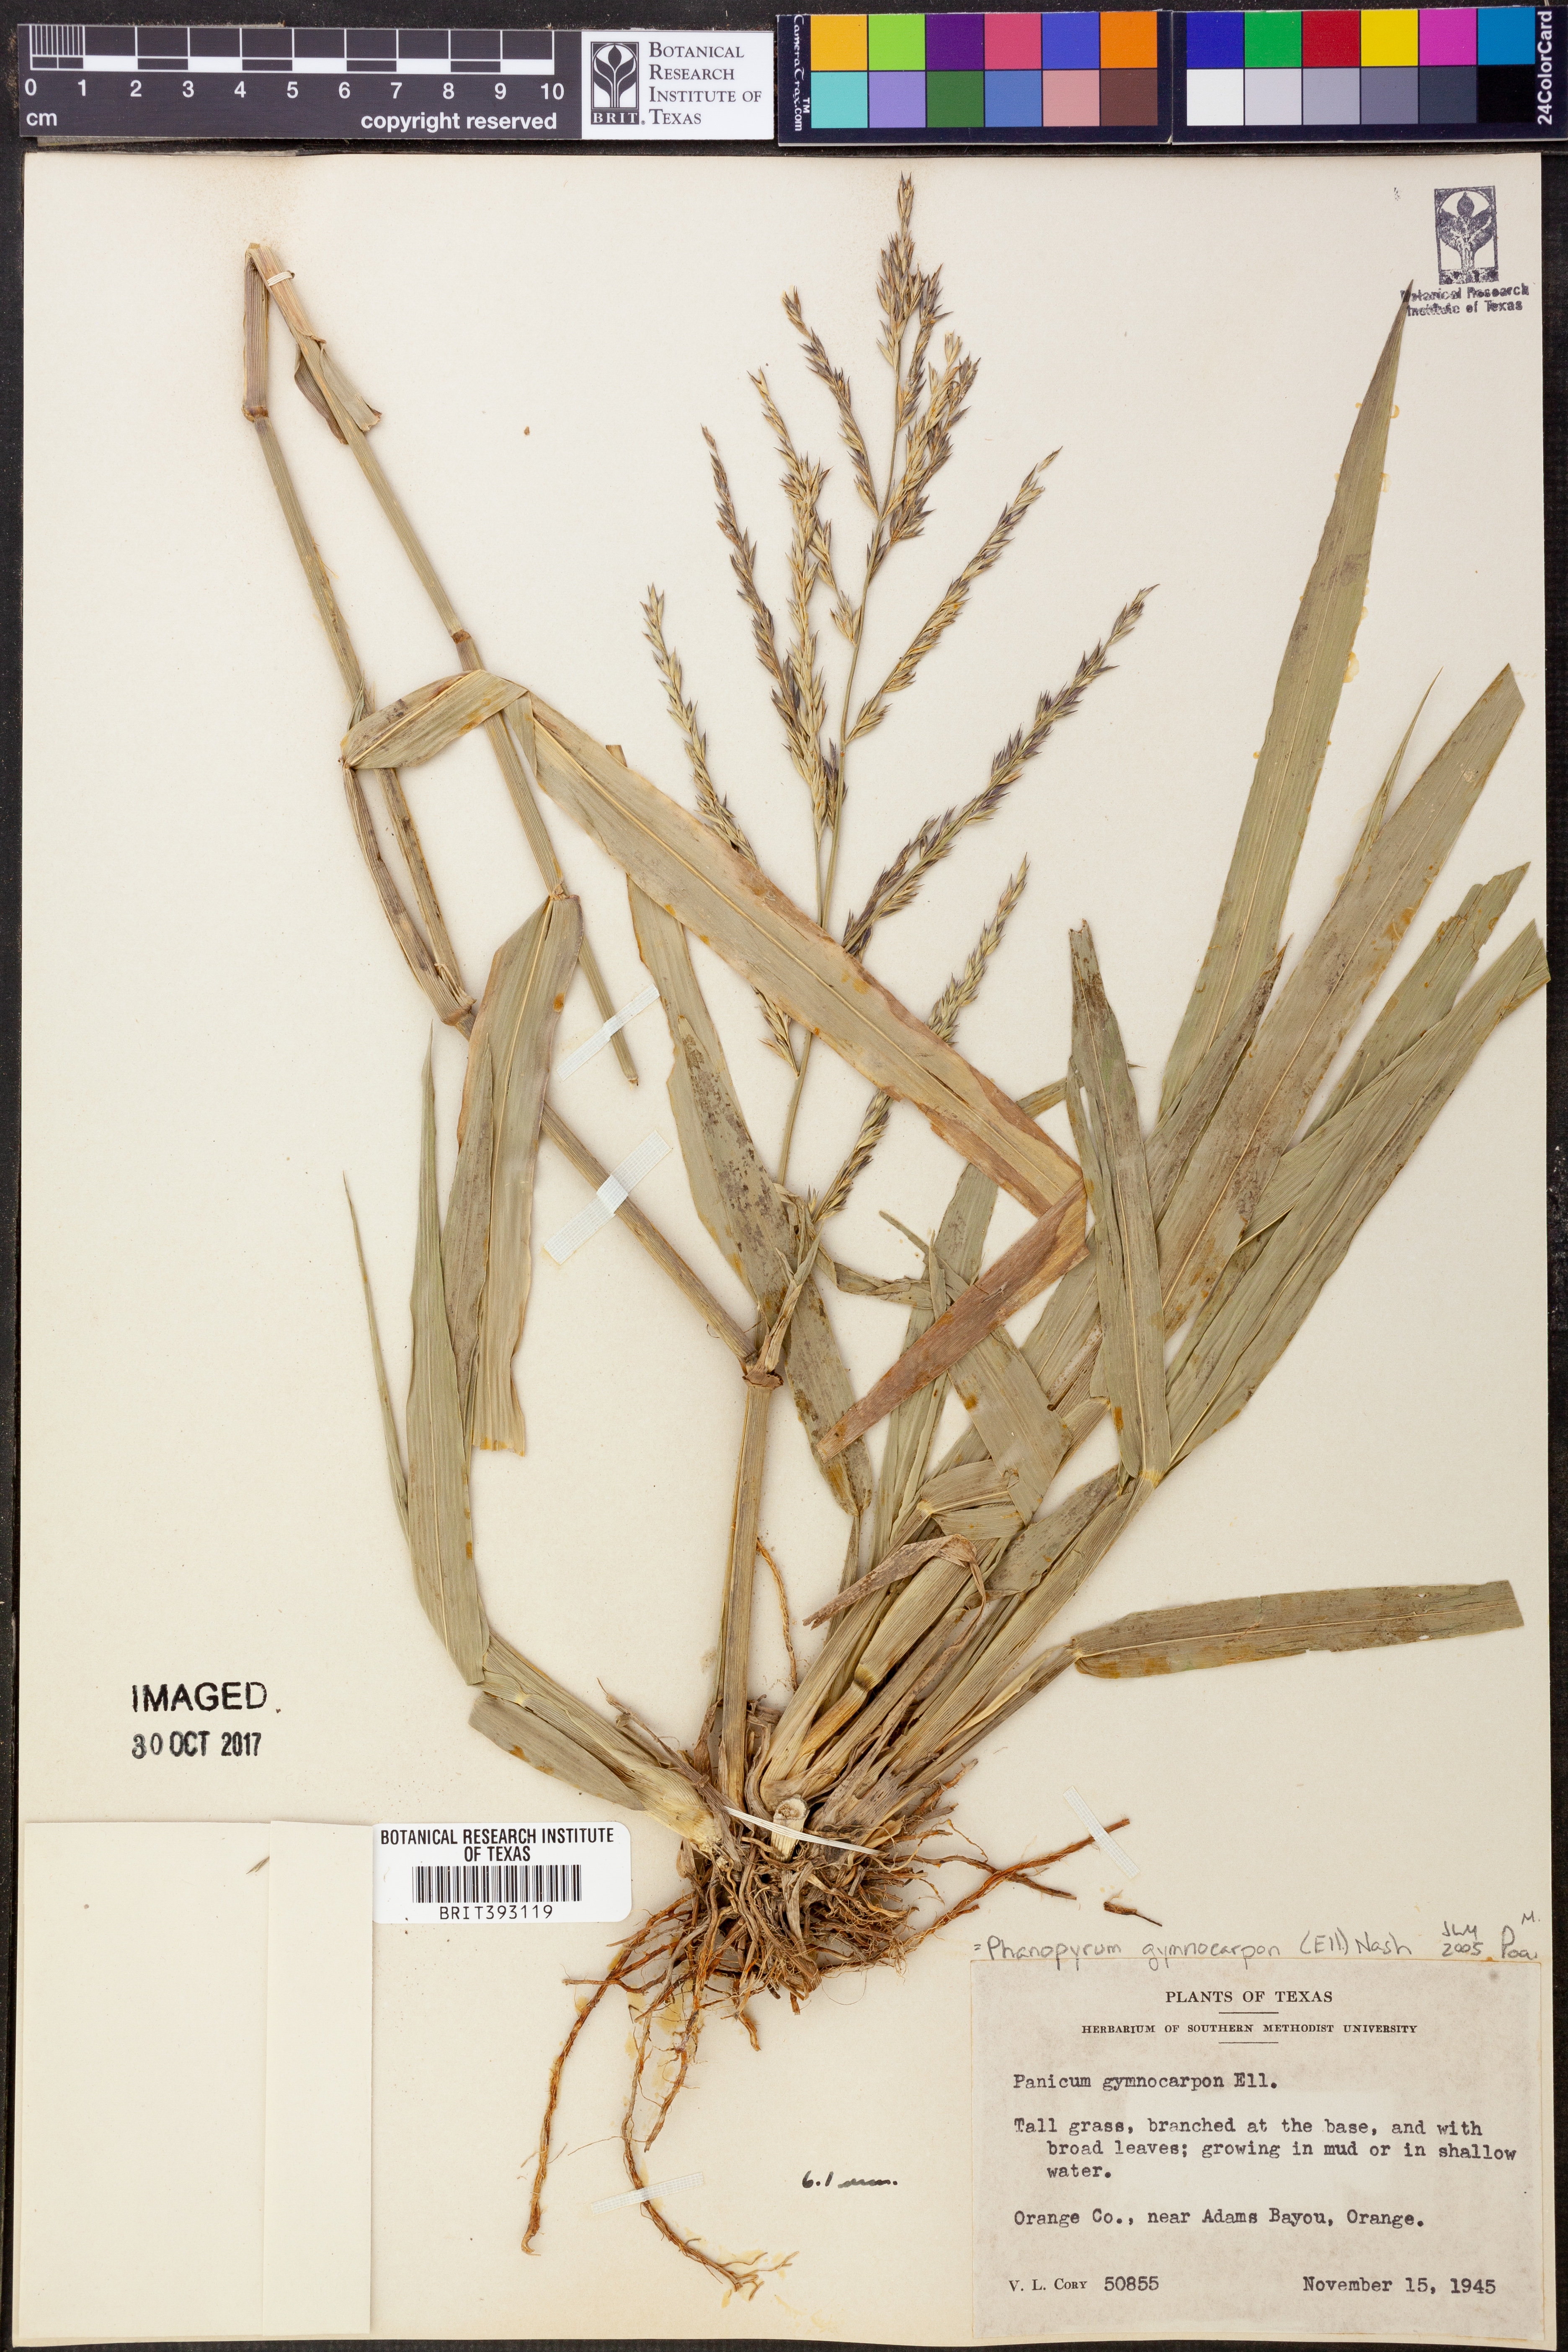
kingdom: Plantae
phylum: Tracheophyta
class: Liliopsida
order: Poales
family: Poaceae
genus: Panicum
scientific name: Panicum gymnocarpon
